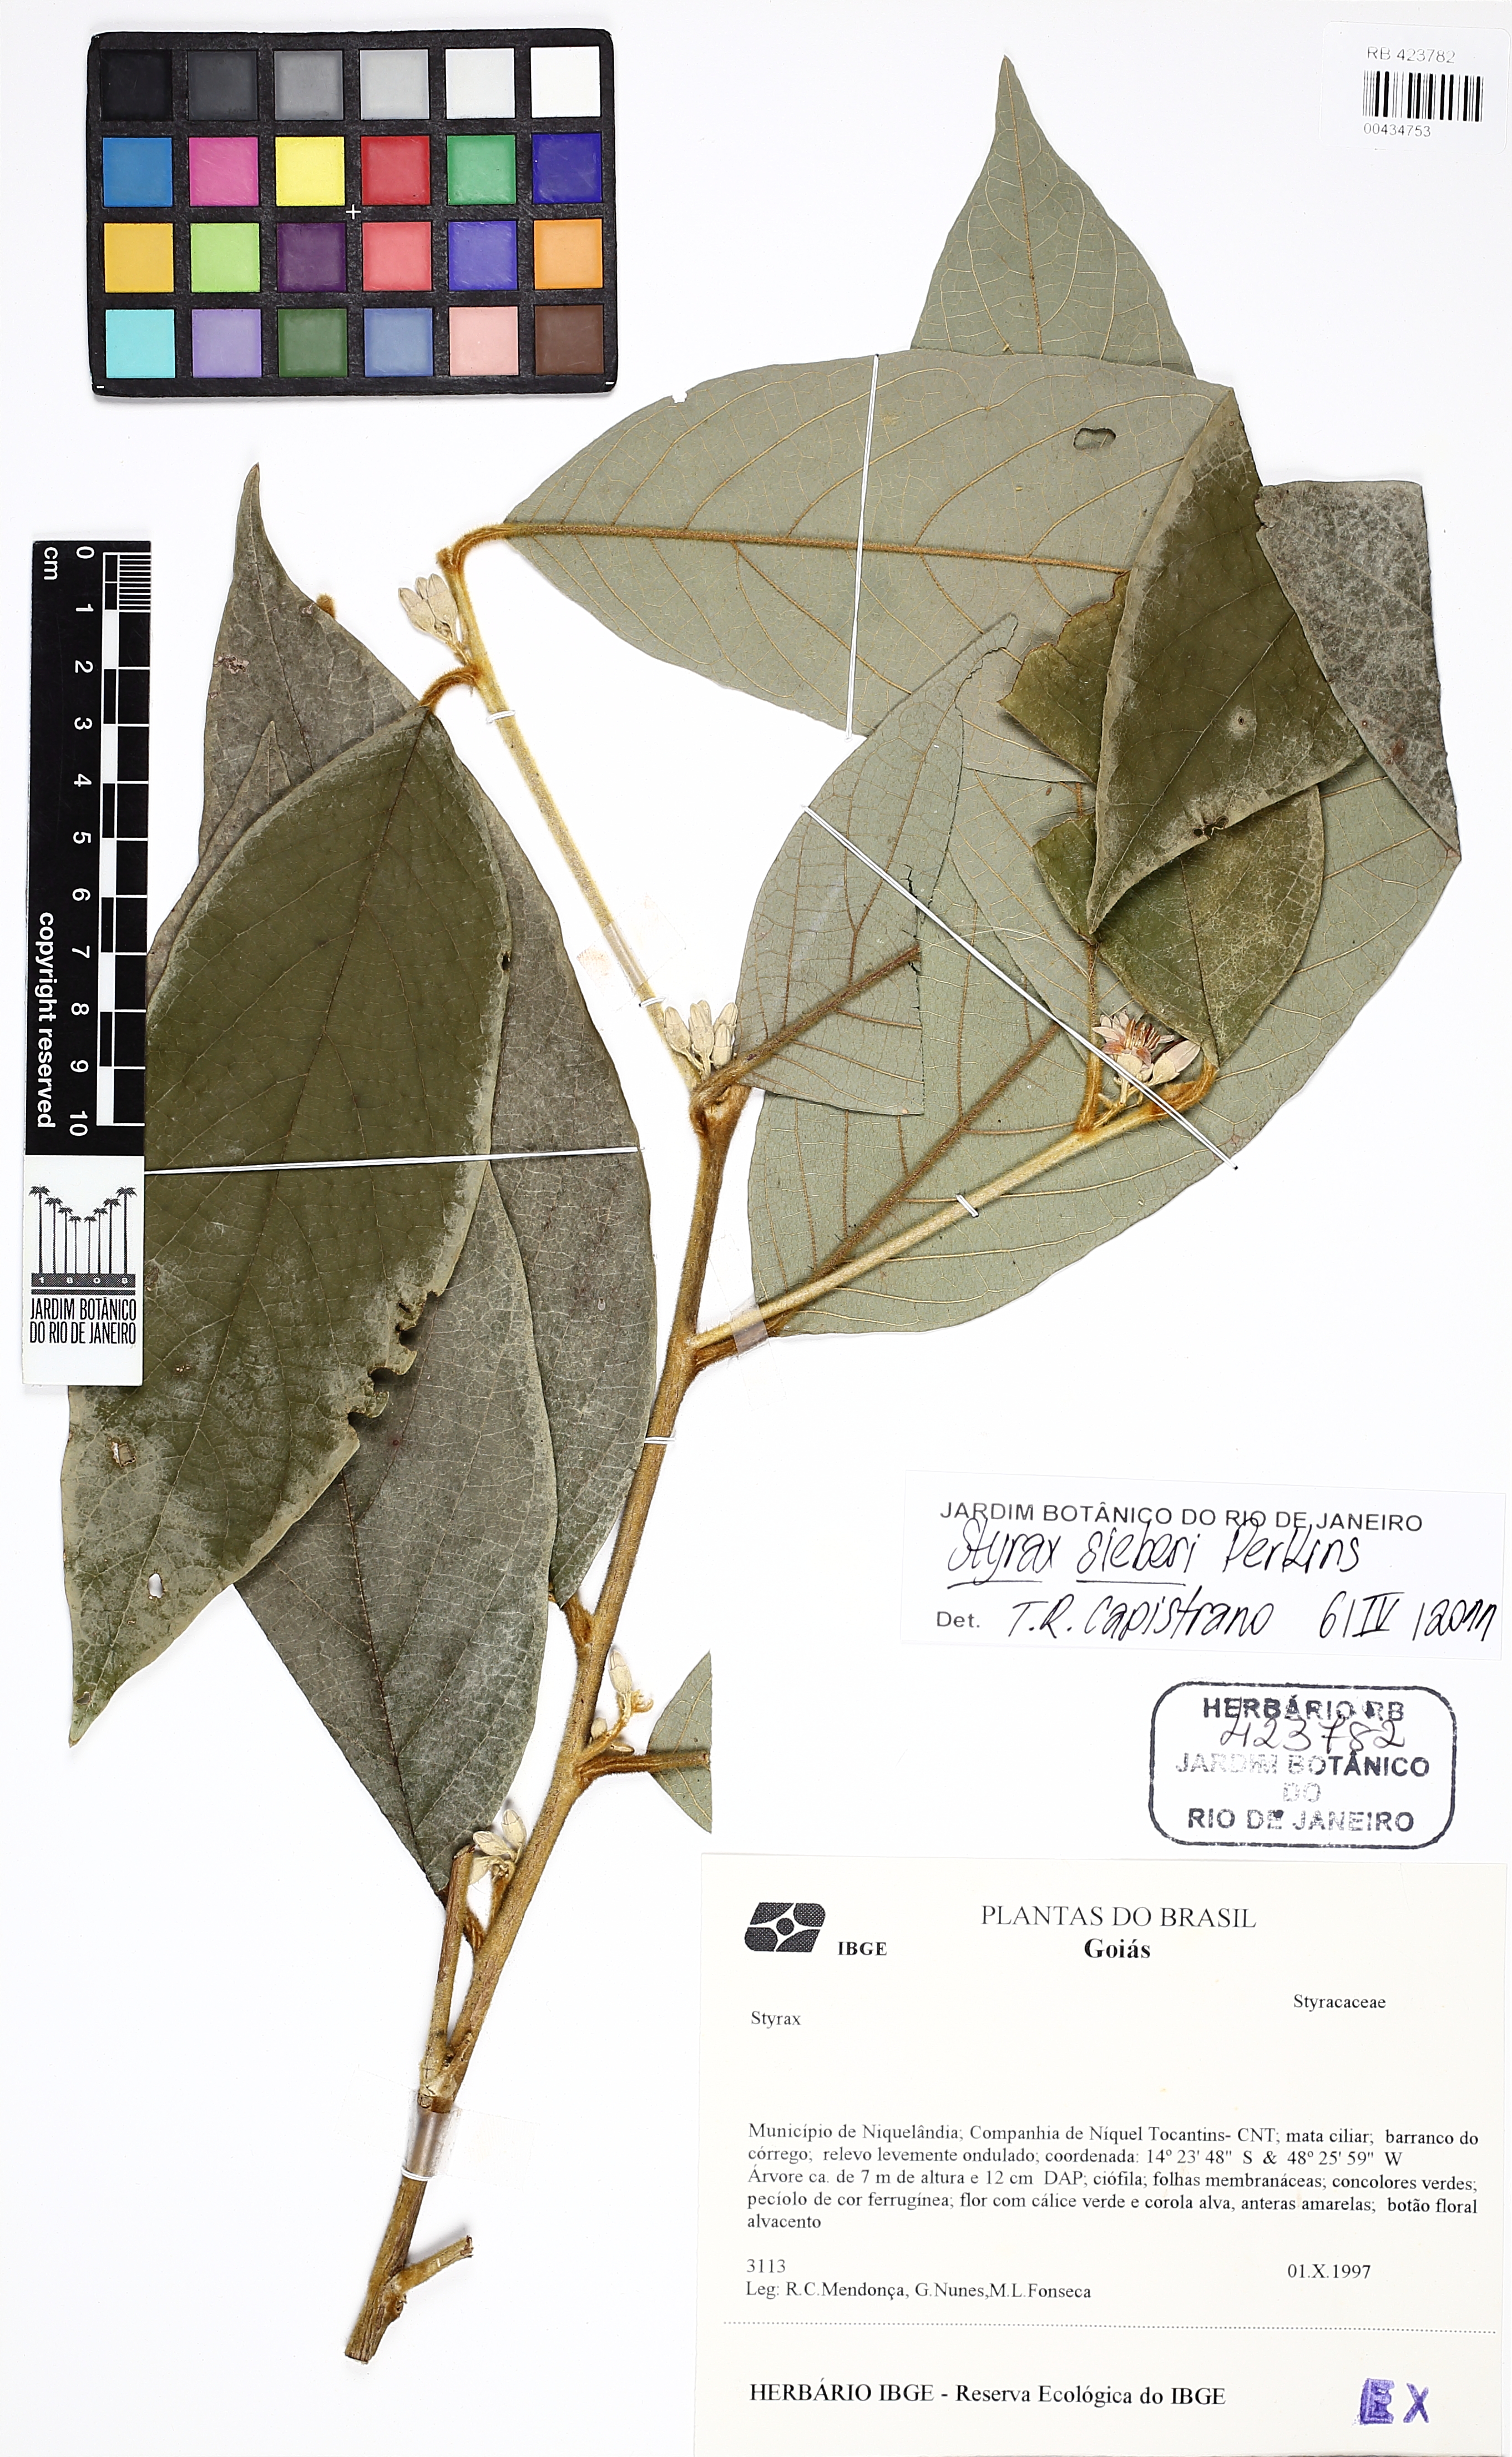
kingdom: Plantae
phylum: Tracheophyta
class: Magnoliopsida
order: Ericales
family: Styracaceae
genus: Styrax
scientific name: Styrax sieberi
